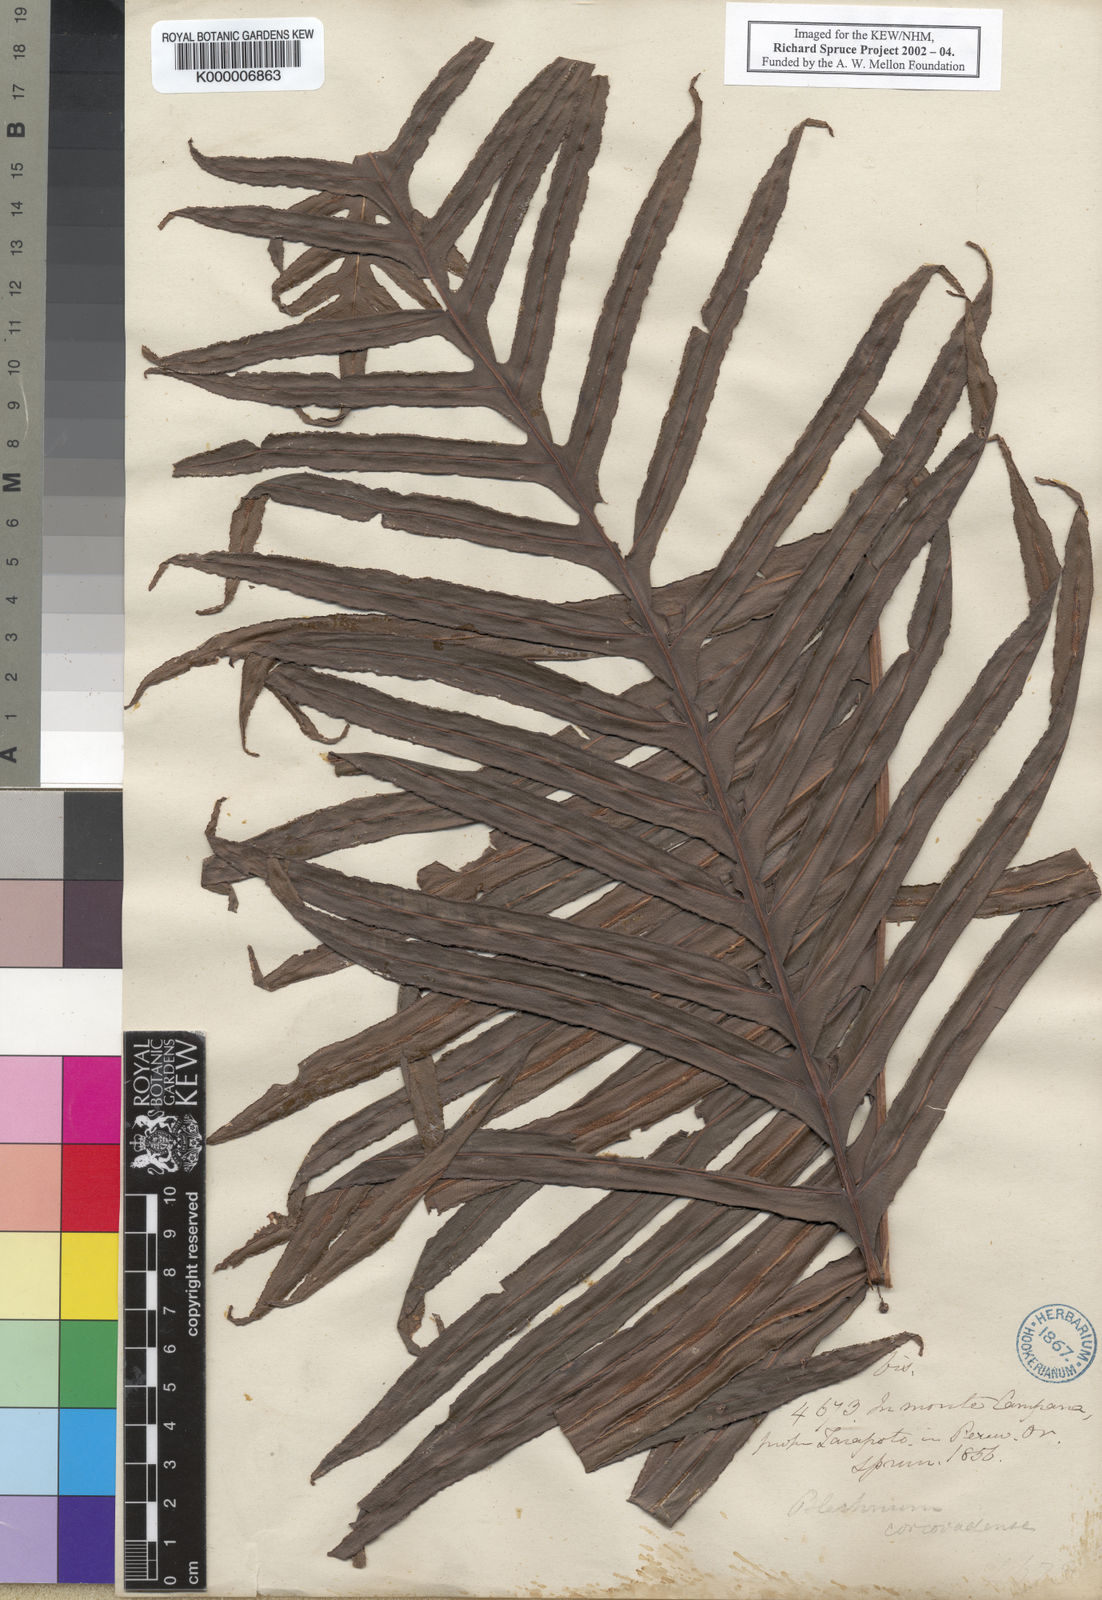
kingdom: Plantae
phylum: Tracheophyta
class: Polypodiopsida
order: Polypodiales
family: Blechnaceae
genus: Neoblechnum
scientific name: Neoblechnum brasiliense
